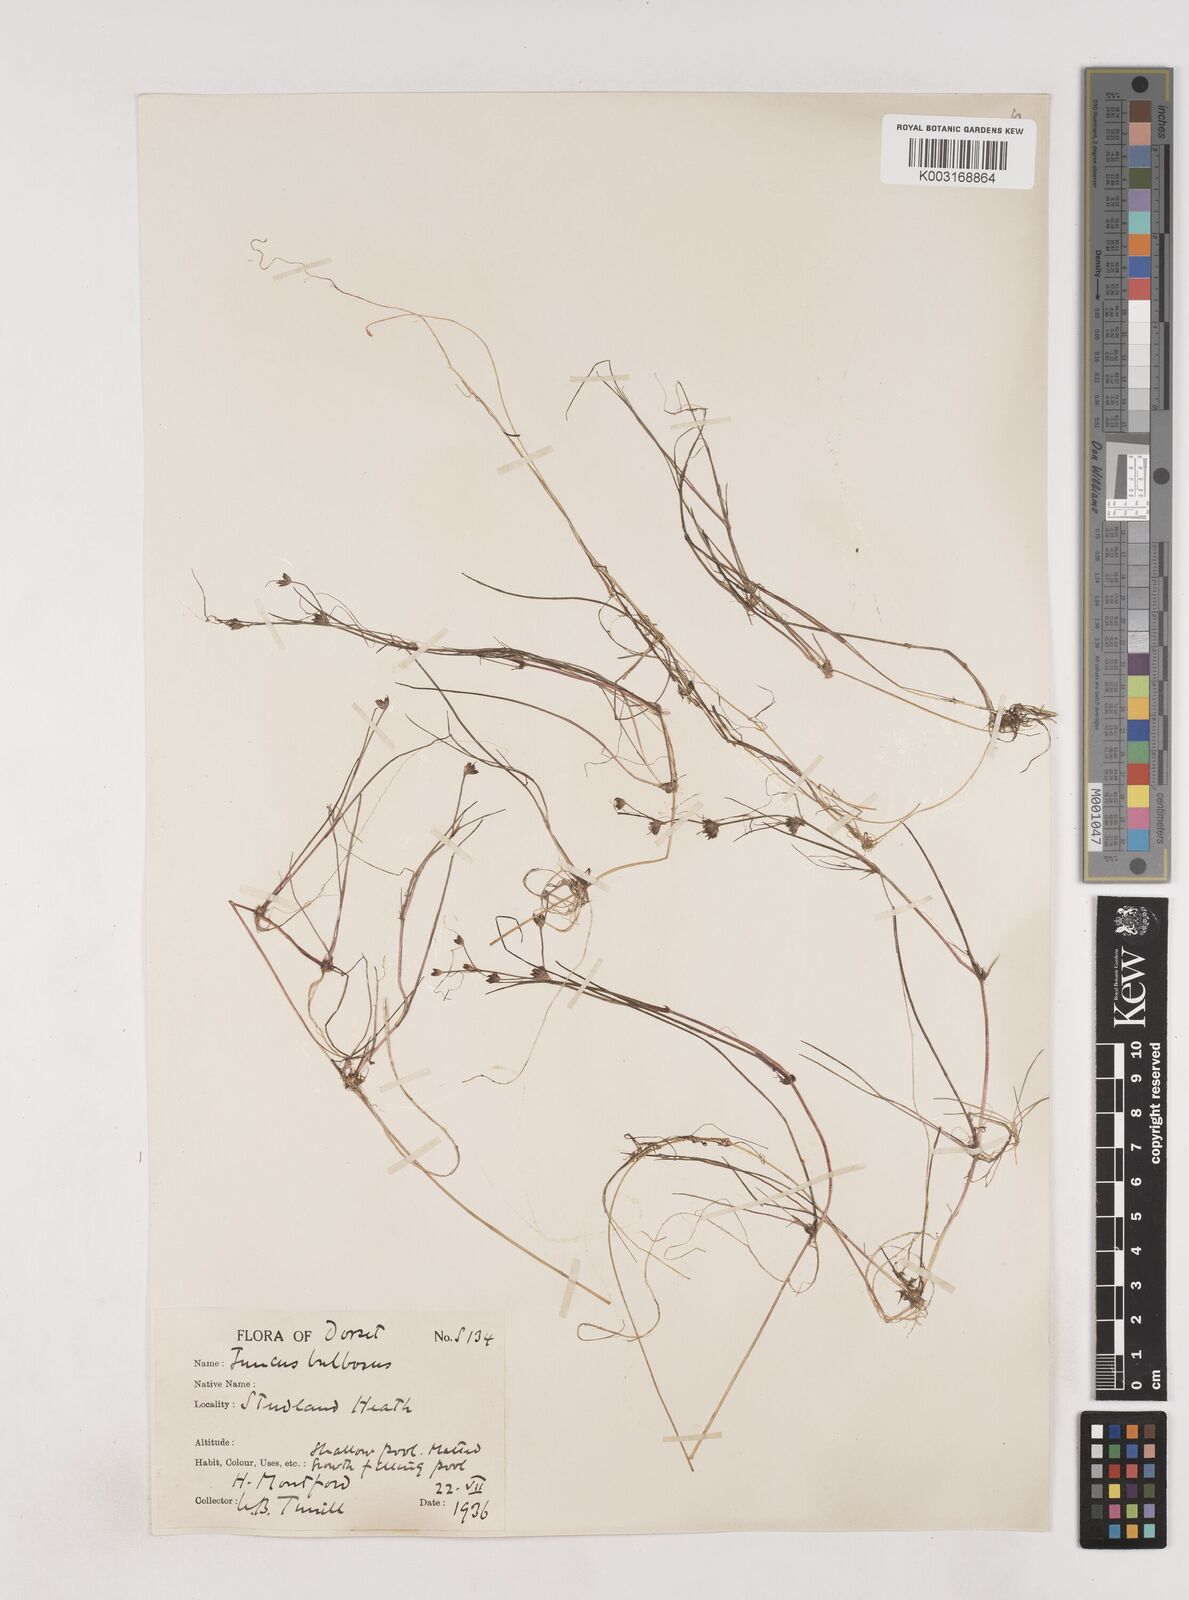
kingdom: Plantae
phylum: Tracheophyta
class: Liliopsida
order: Poales
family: Juncaceae
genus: Juncus
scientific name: Juncus bulbosus
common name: Bulbous rush
